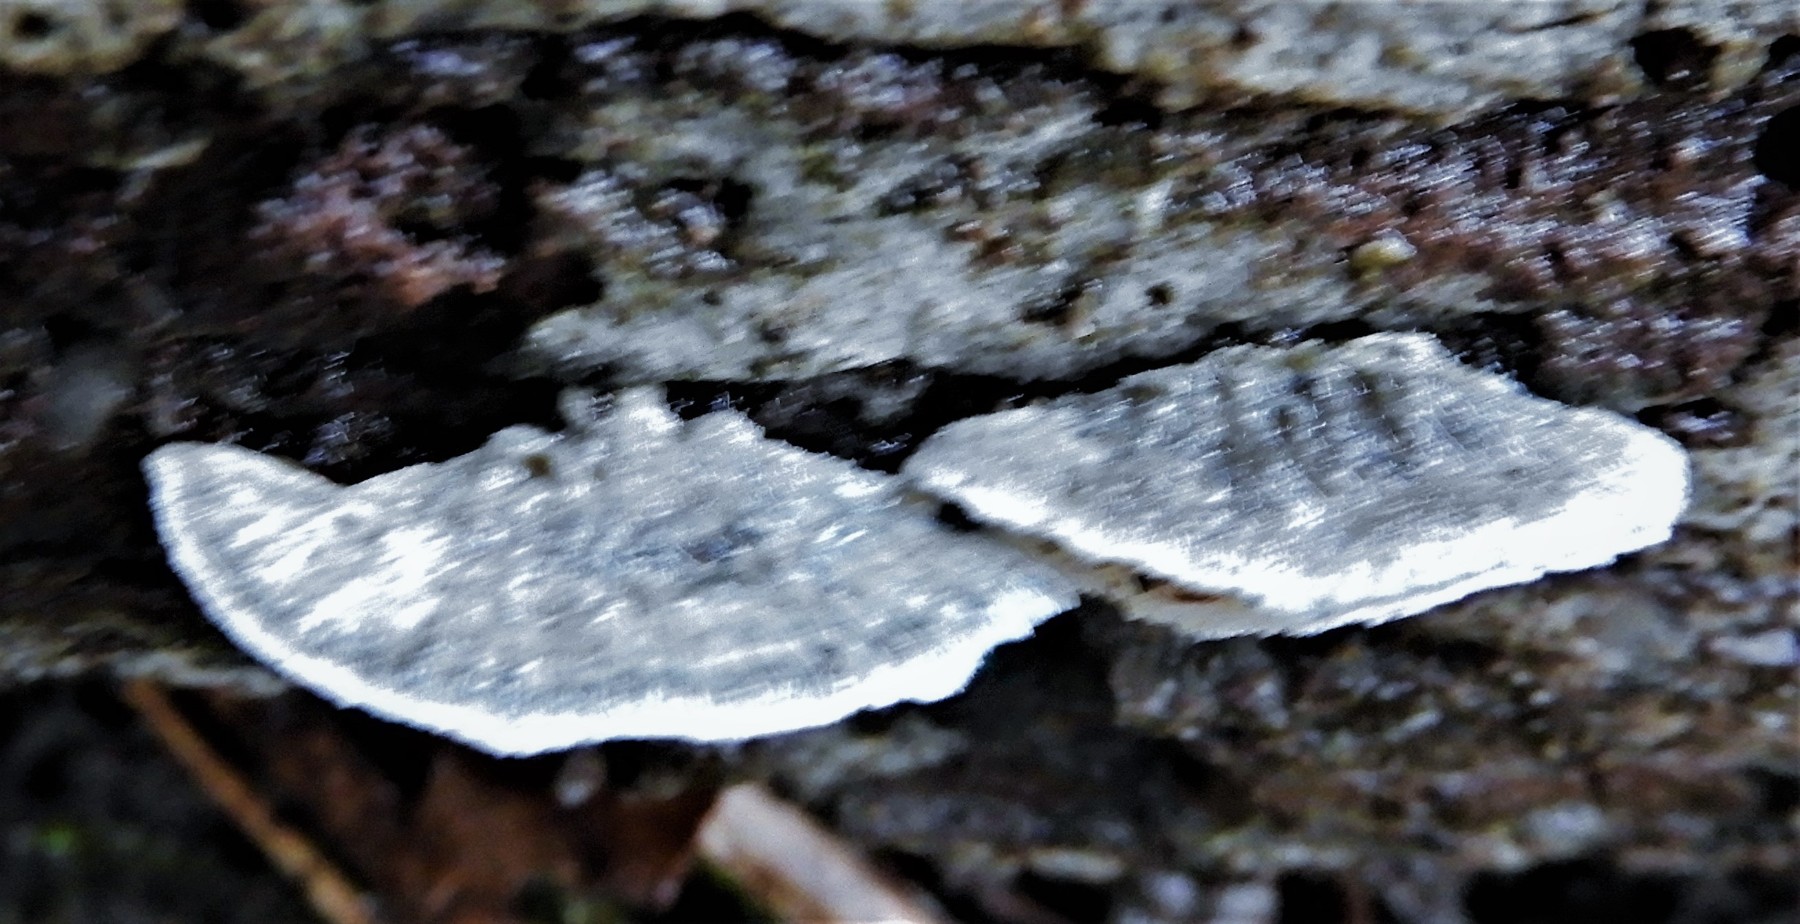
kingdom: Fungi
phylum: Basidiomycota
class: Agaricomycetes
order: Polyporales
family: Polyporaceae
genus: Cyanosporus
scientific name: Cyanosporus alni
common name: blegblå kødporesvamp
